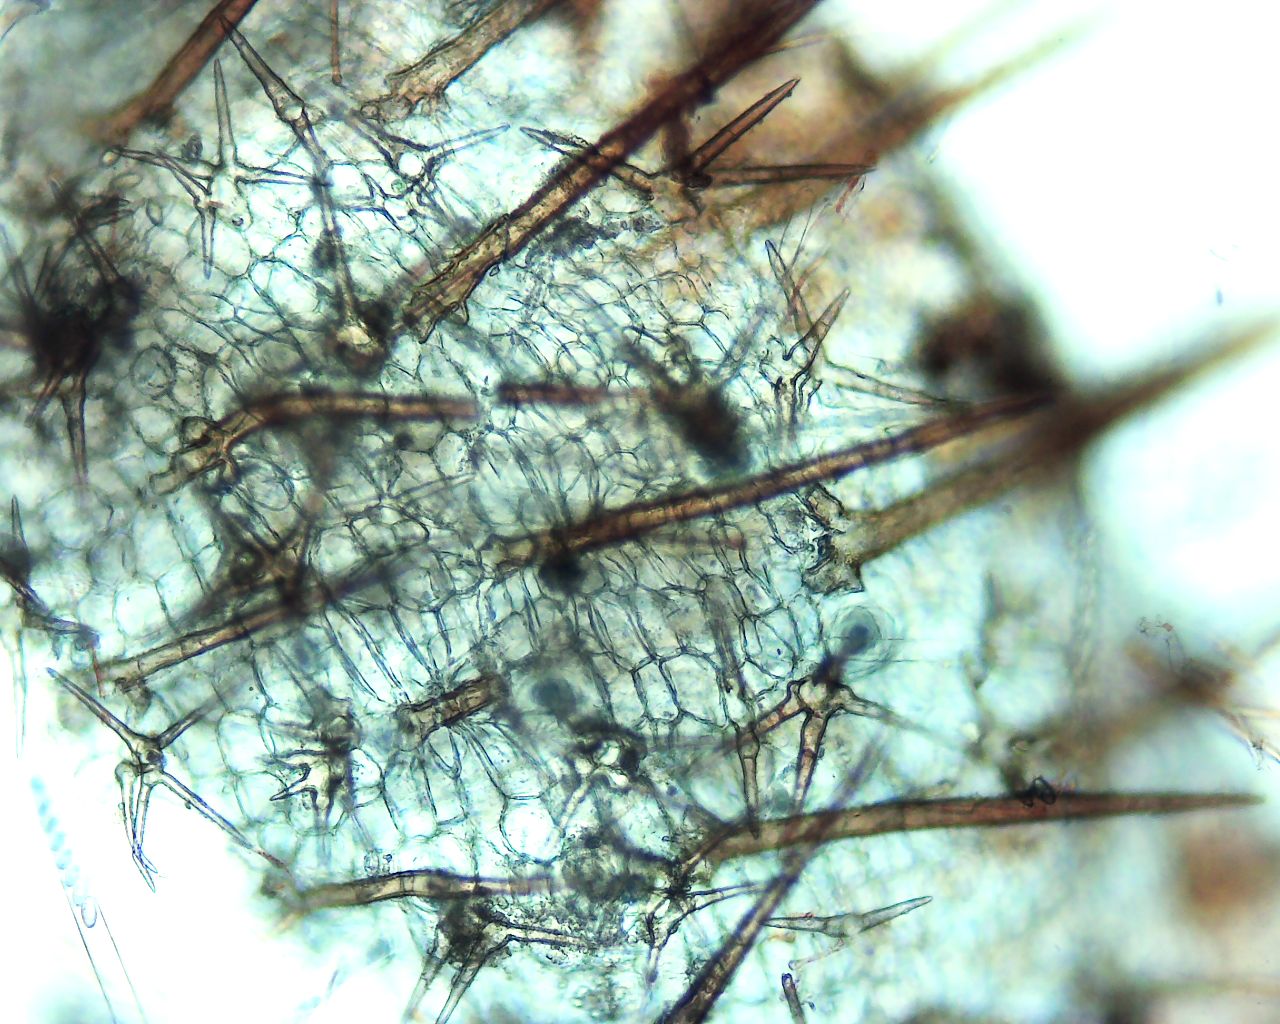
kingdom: Fungi
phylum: Ascomycota
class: Pezizomycetes
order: Pezizales
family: Pyronemataceae
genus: Cheilymenia
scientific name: Cheilymenia stercorea
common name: gødnings-hårbæger
